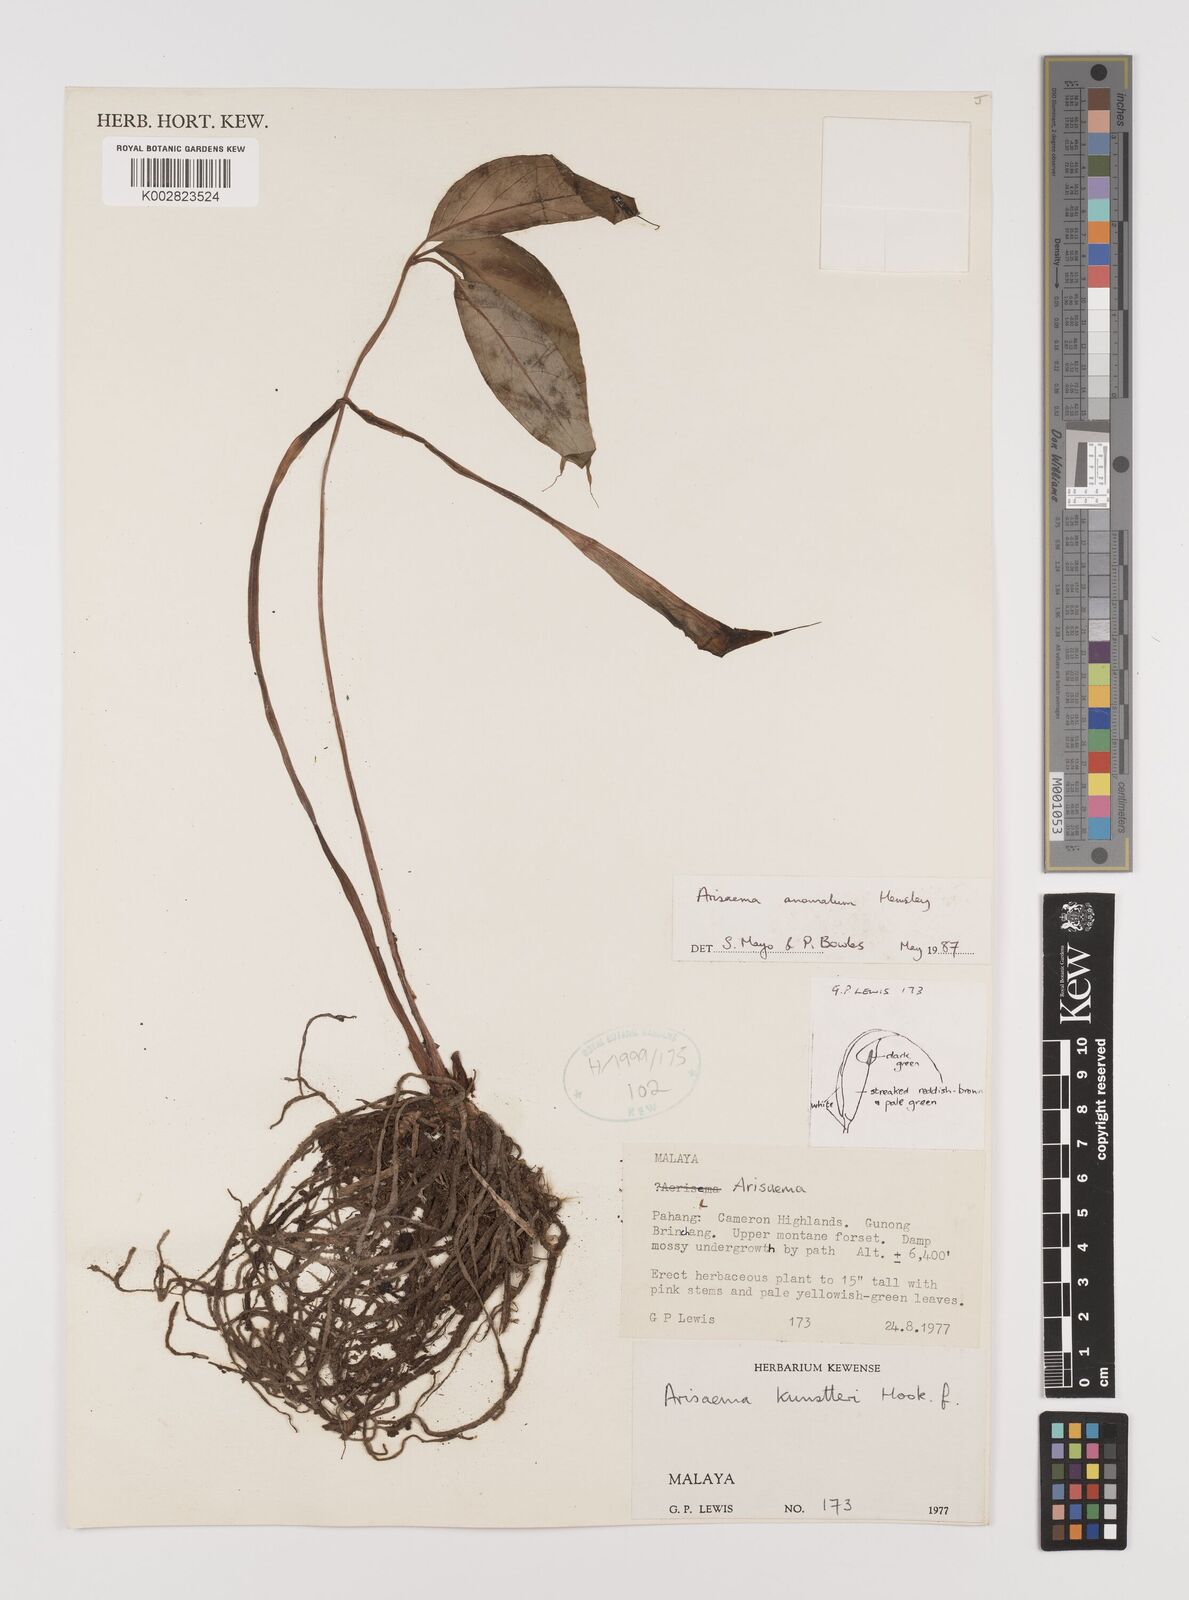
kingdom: Plantae
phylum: Tracheophyta
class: Liliopsida
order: Alismatales
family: Araceae
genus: Arisaema
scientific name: Arisaema anomalum
